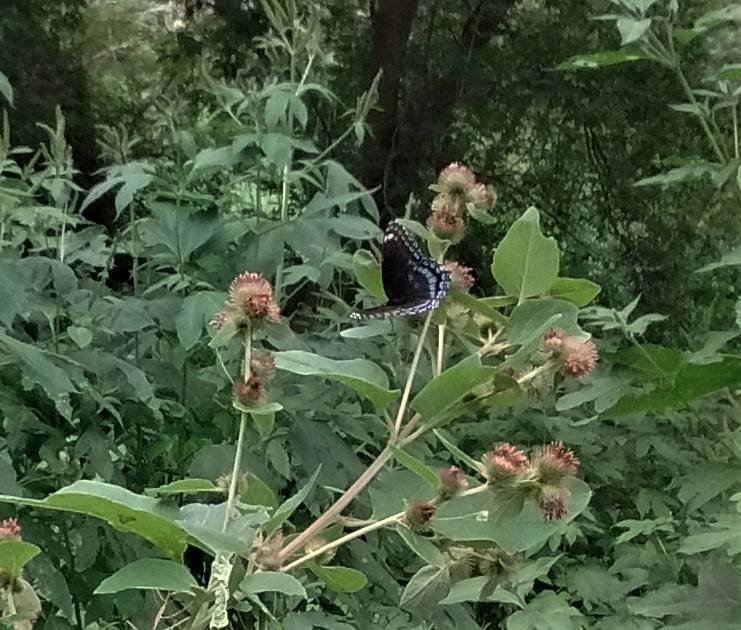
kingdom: Animalia
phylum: Arthropoda
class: Insecta
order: Lepidoptera
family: Nymphalidae
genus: Limenitis
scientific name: Limenitis astyanax
